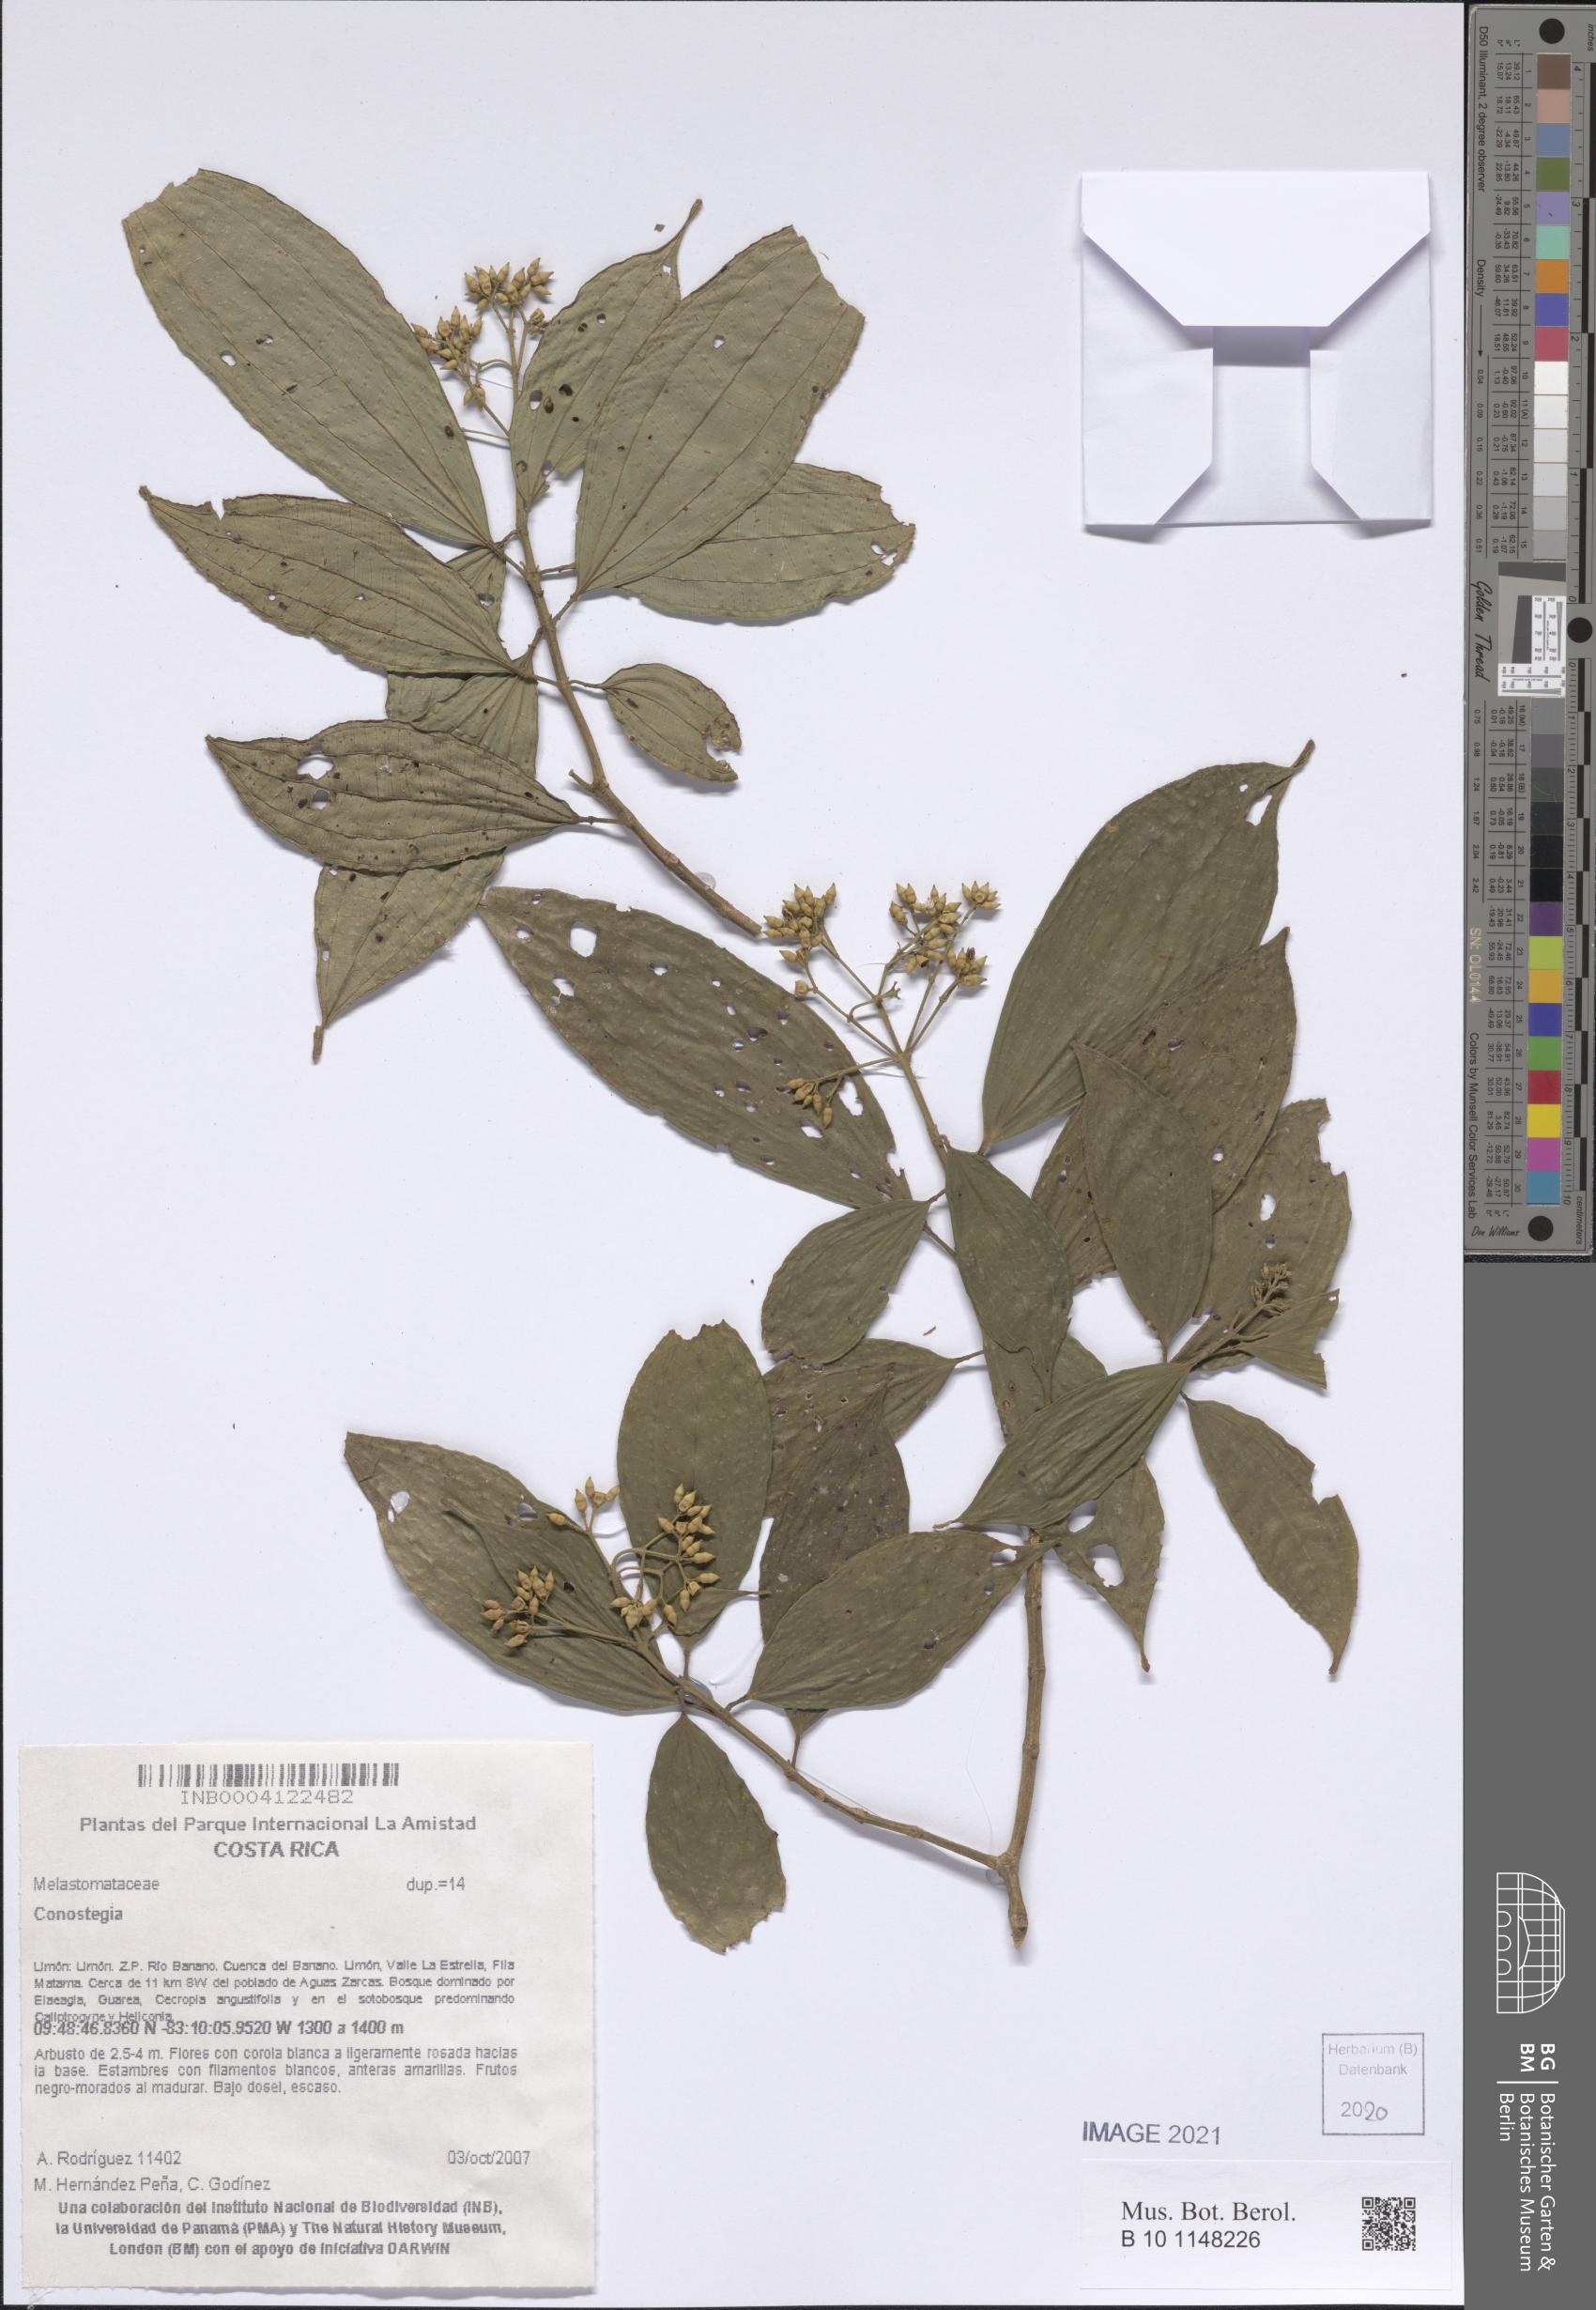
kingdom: Plantae
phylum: Tracheophyta
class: Magnoliopsida
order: Myrtales
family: Melastomataceae
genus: Miconia
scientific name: Miconia
